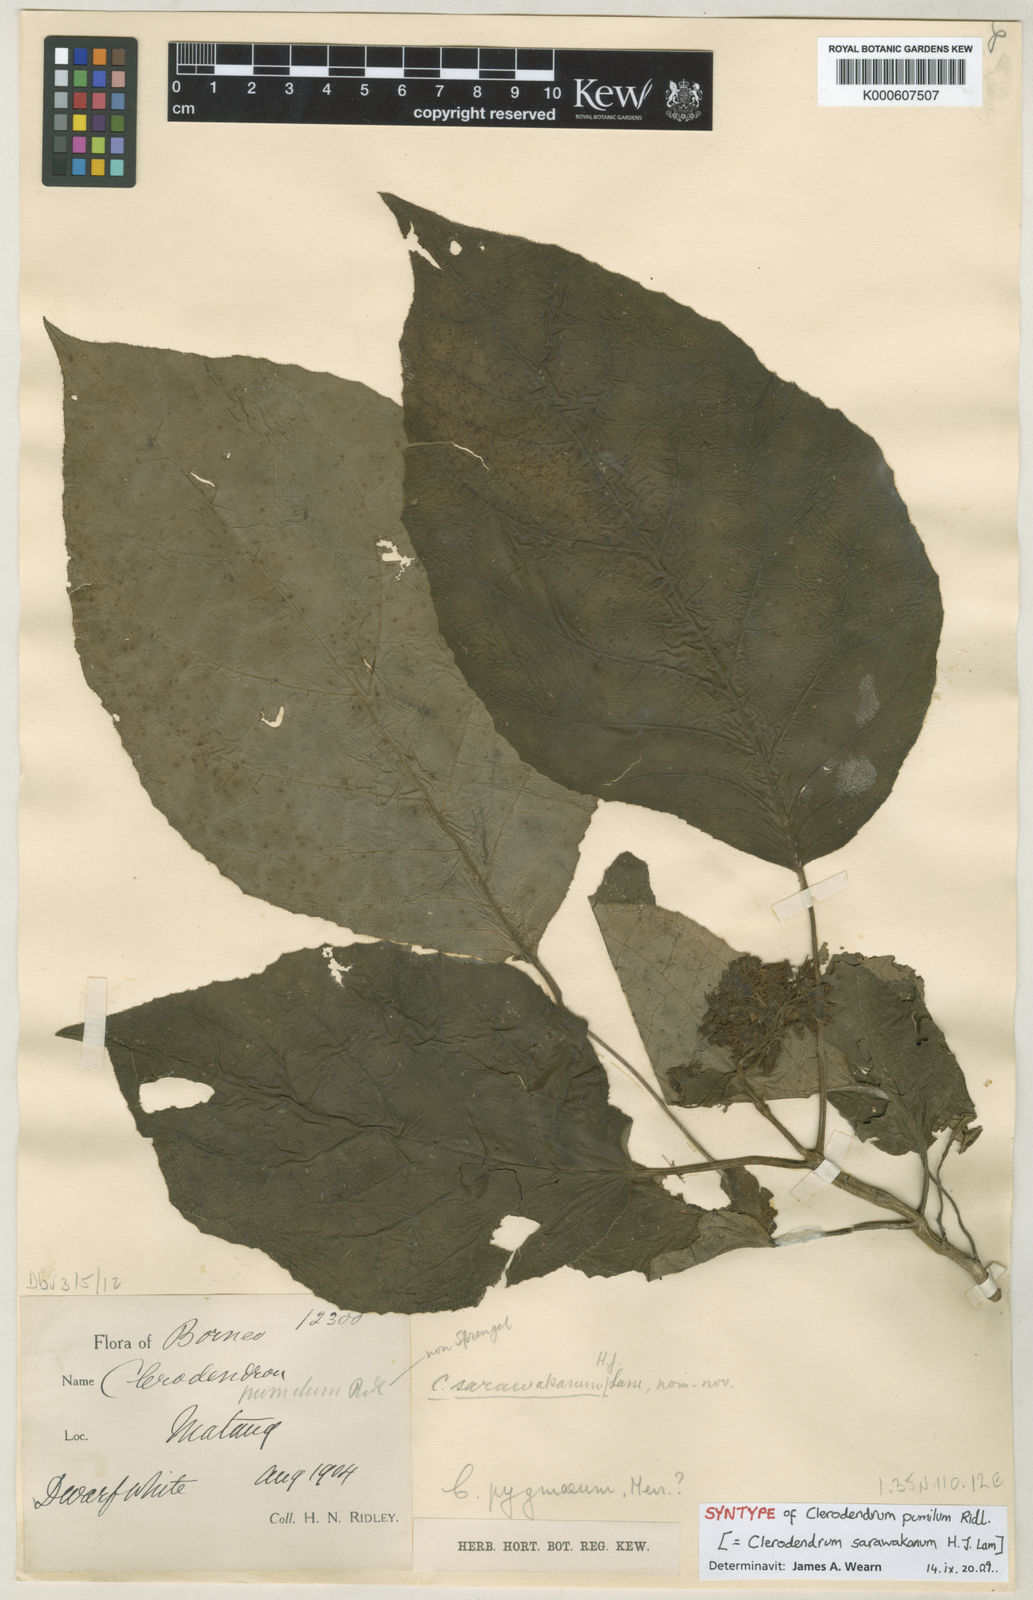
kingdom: Plantae
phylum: Tracheophyta
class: Magnoliopsida
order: Lamiales
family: Lamiaceae
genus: Clerodendrum
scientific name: Clerodendrum sarawakanum
